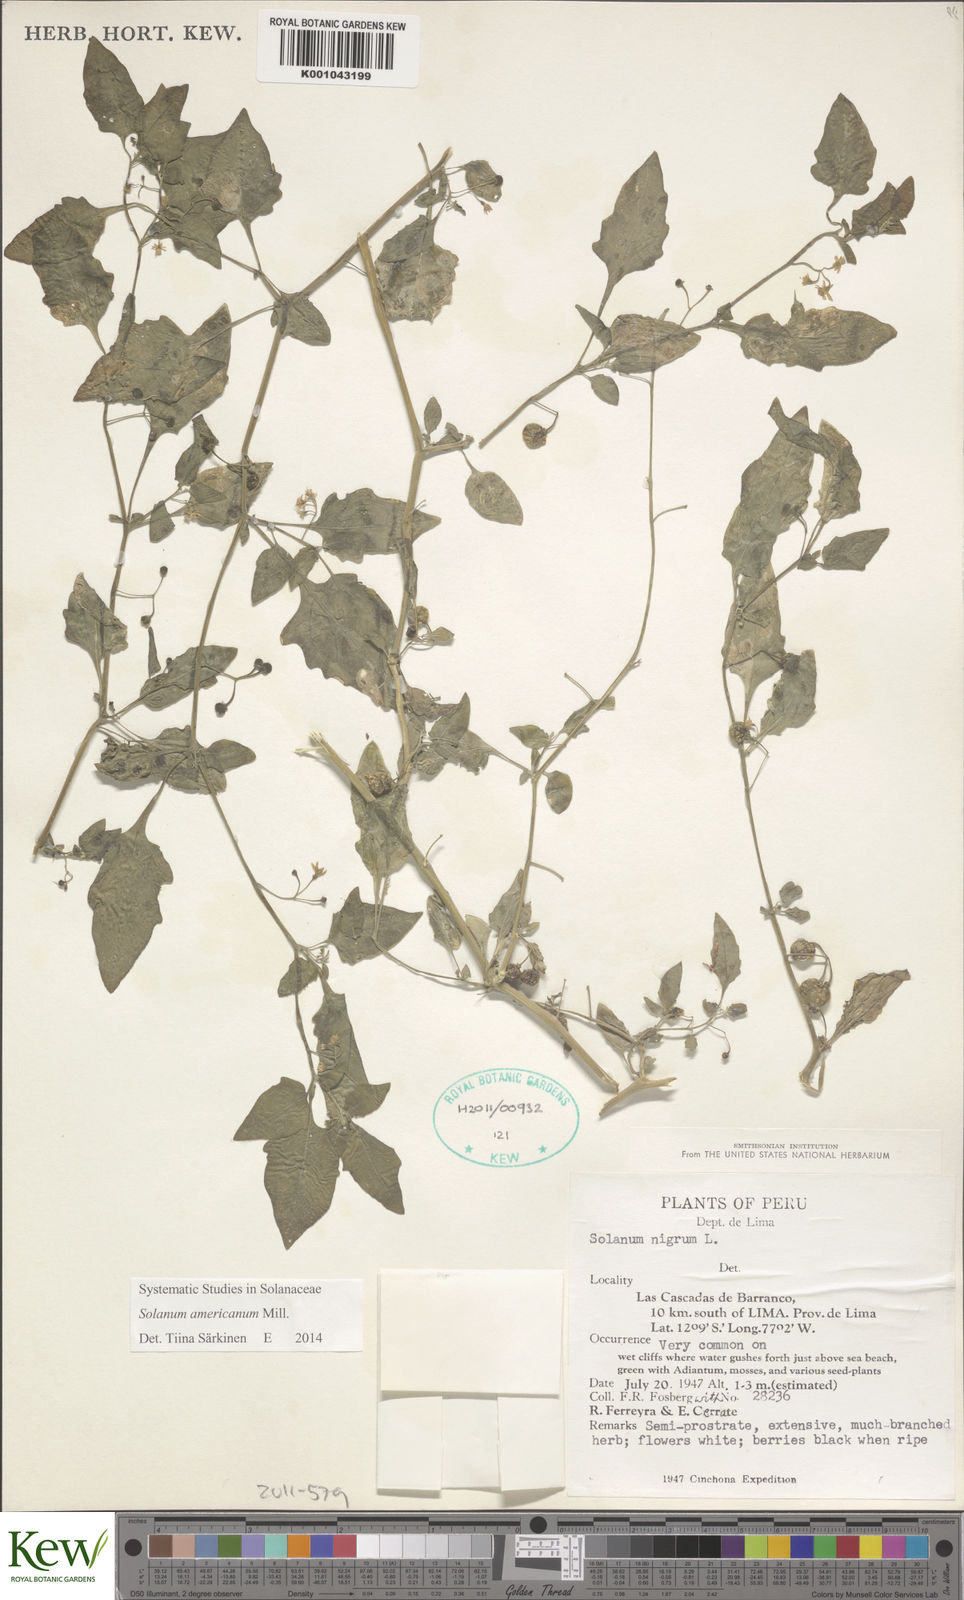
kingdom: Plantae
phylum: Tracheophyta
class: Magnoliopsida
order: Solanales
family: Solanaceae
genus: Solanum
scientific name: Solanum americanum
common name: American black nightshade
